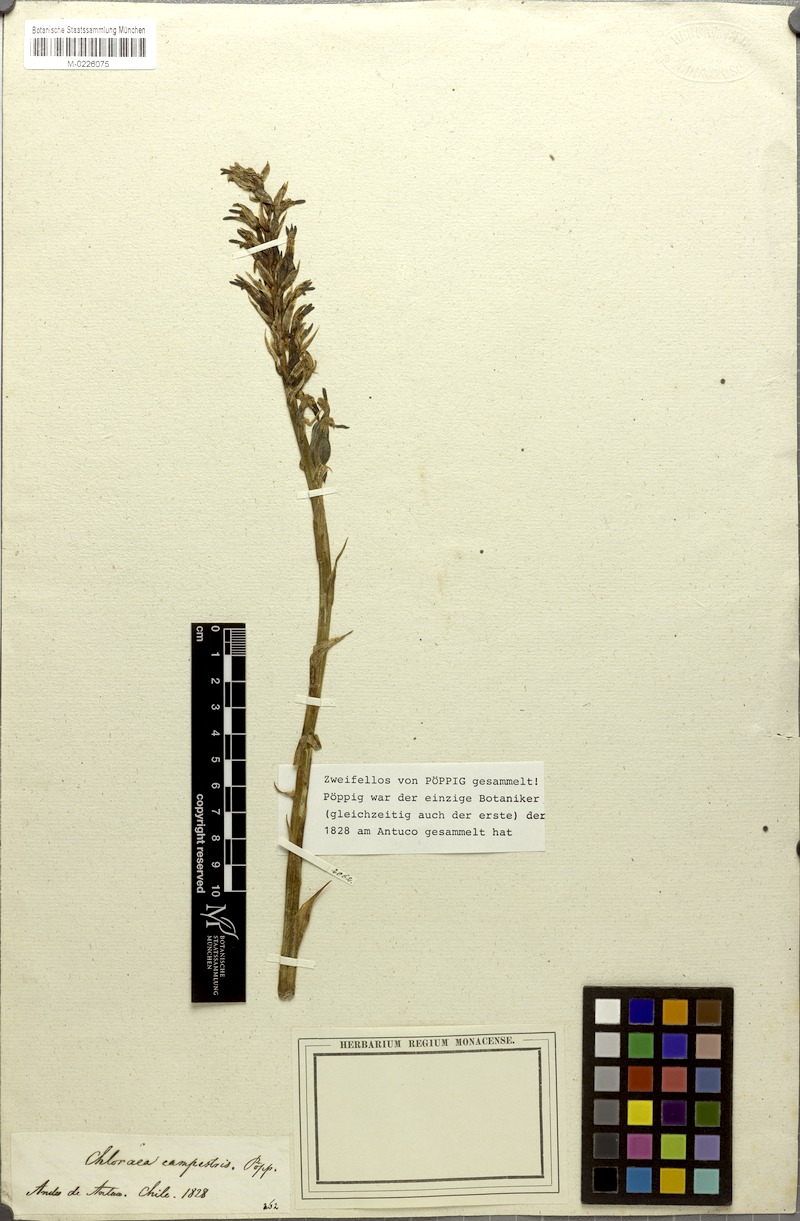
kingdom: Plantae
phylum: Tracheophyta
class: Liliopsida
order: Asparagales
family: Orchidaceae
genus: Chloraea
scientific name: Chloraea multiflora
